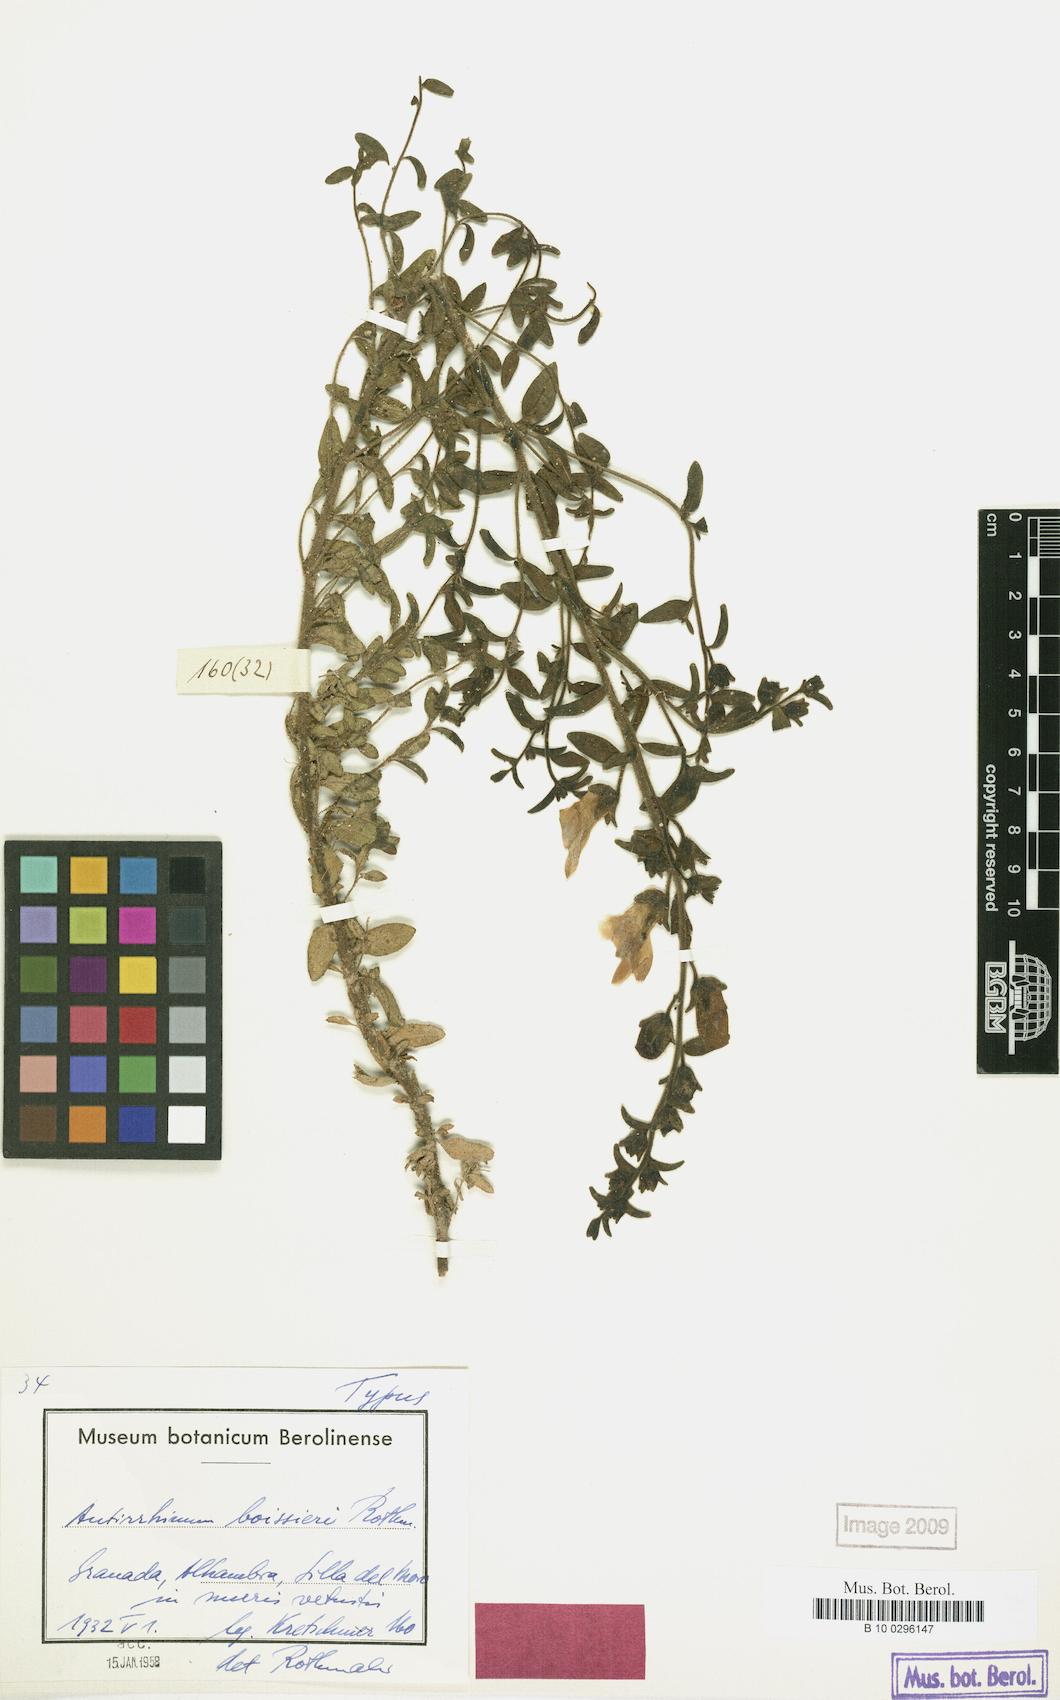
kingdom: Plantae
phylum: Tracheophyta
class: Magnoliopsida
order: Lamiales
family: Plantaginaceae
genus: Antirrhinum
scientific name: Antirrhinum graniticum
